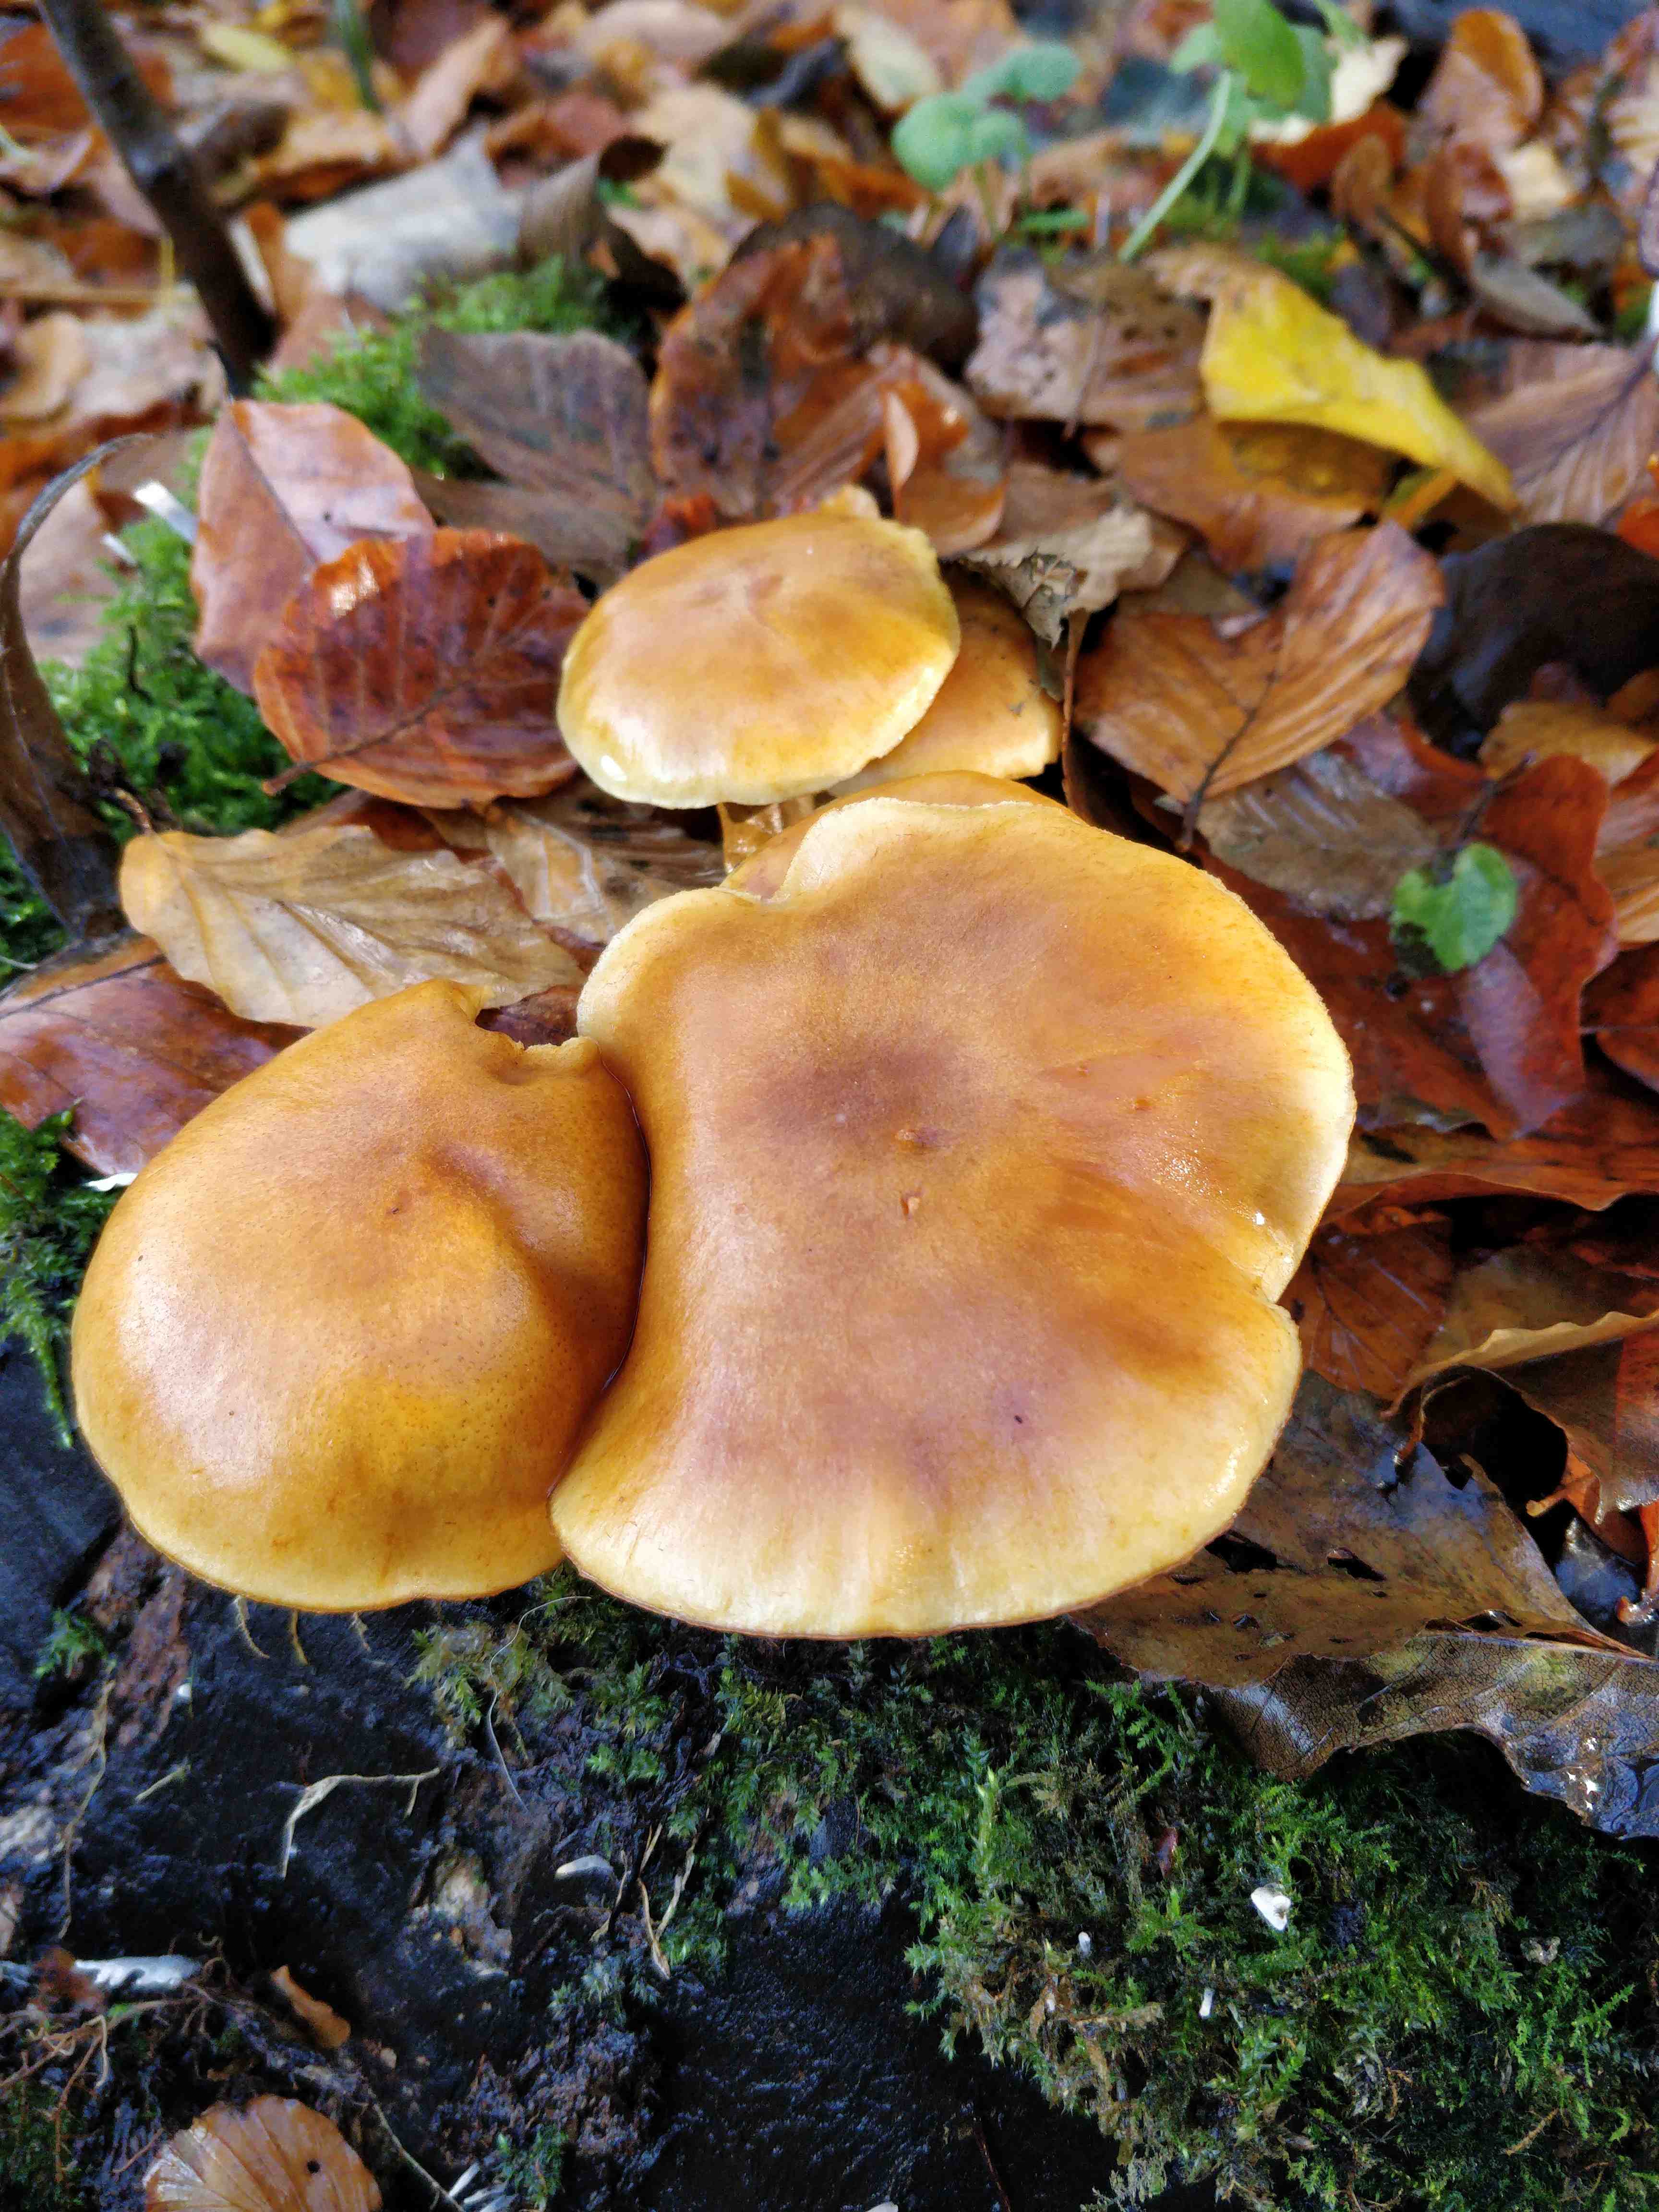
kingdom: Fungi
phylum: Basidiomycota
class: Agaricomycetes
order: Agaricales
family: Hymenogastraceae
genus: Gymnopilus
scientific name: Gymnopilus penetrans
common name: plettet flammehat
